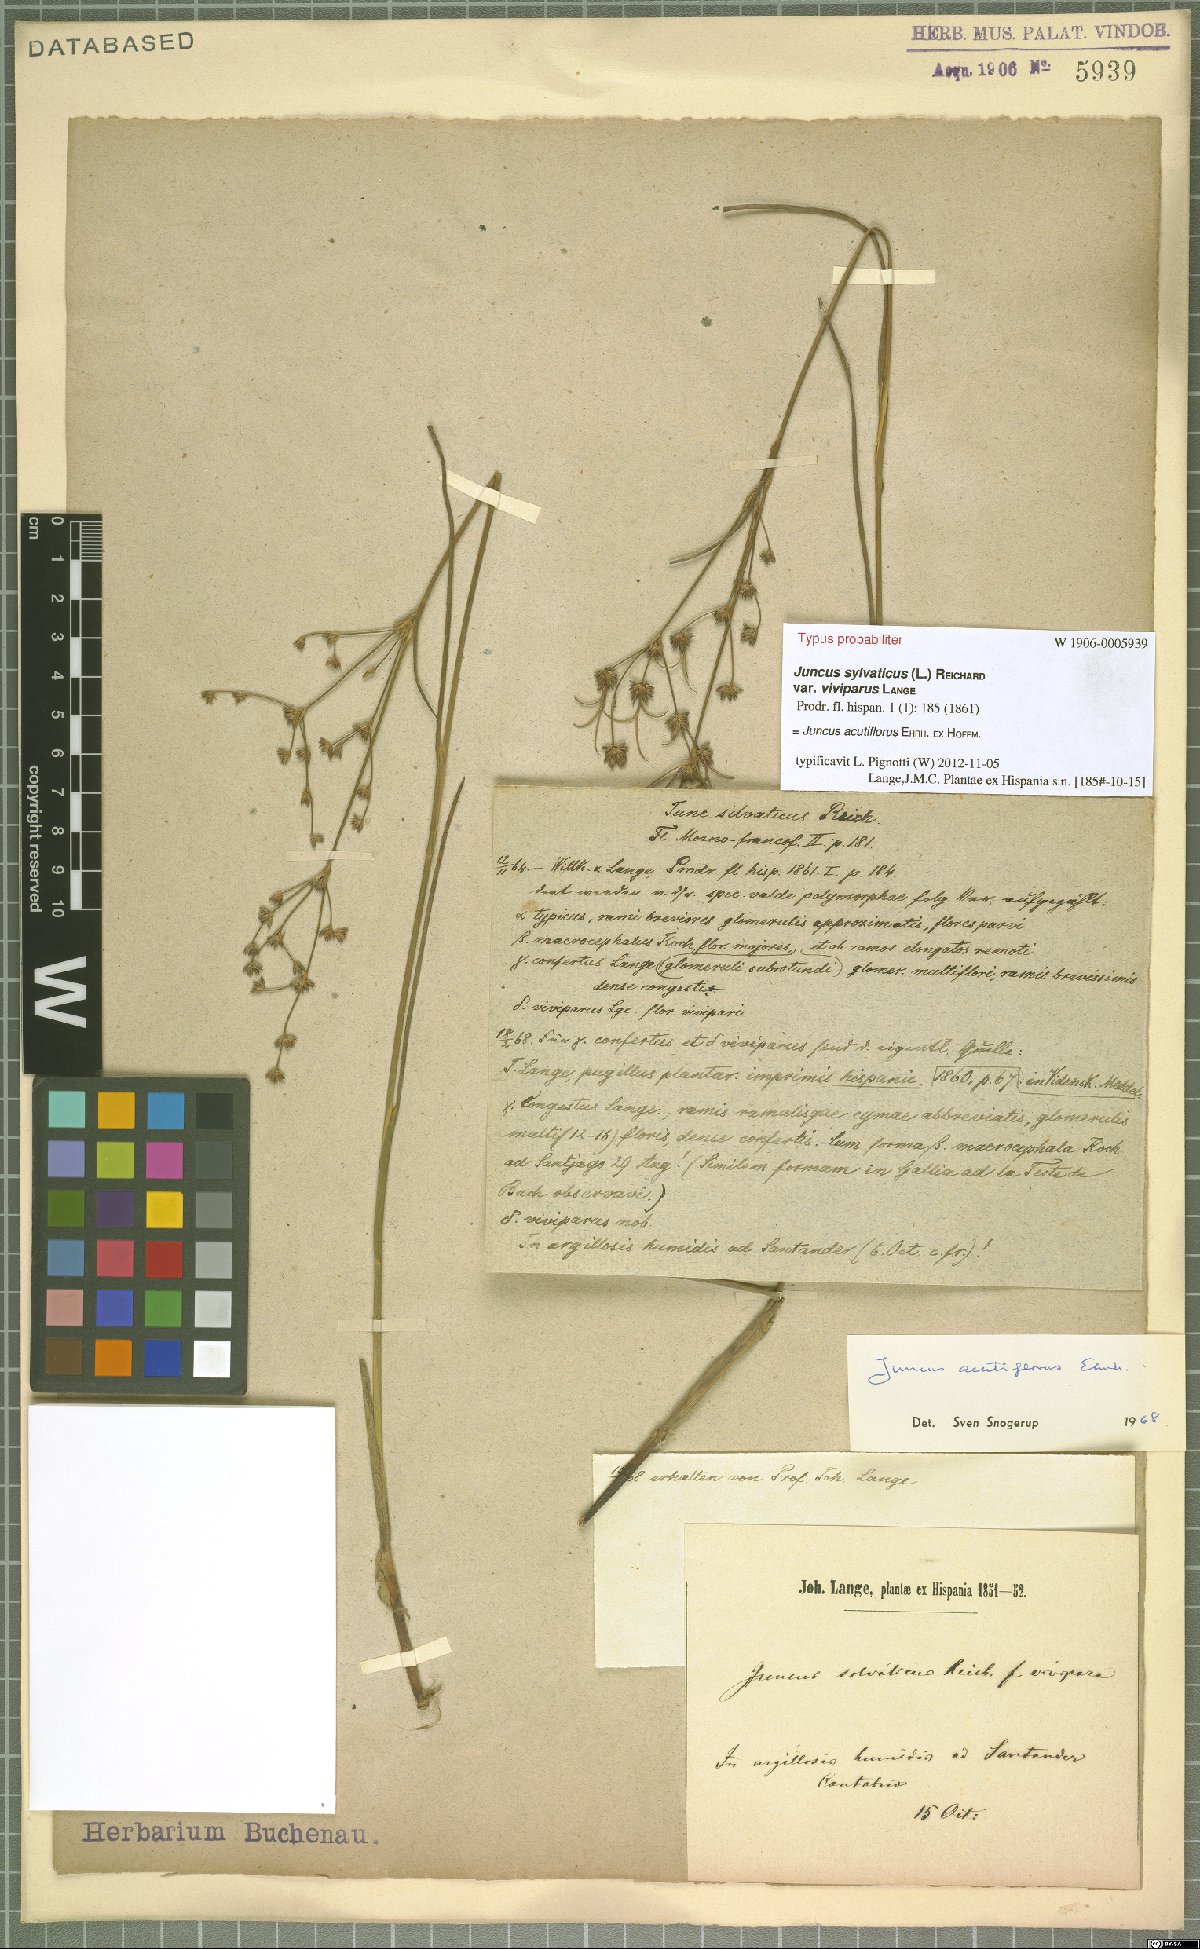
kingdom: Plantae
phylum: Tracheophyta
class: Liliopsida
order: Poales
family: Juncaceae
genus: Juncus
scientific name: Juncus acutiflorus
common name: Sharp-flowered rush
